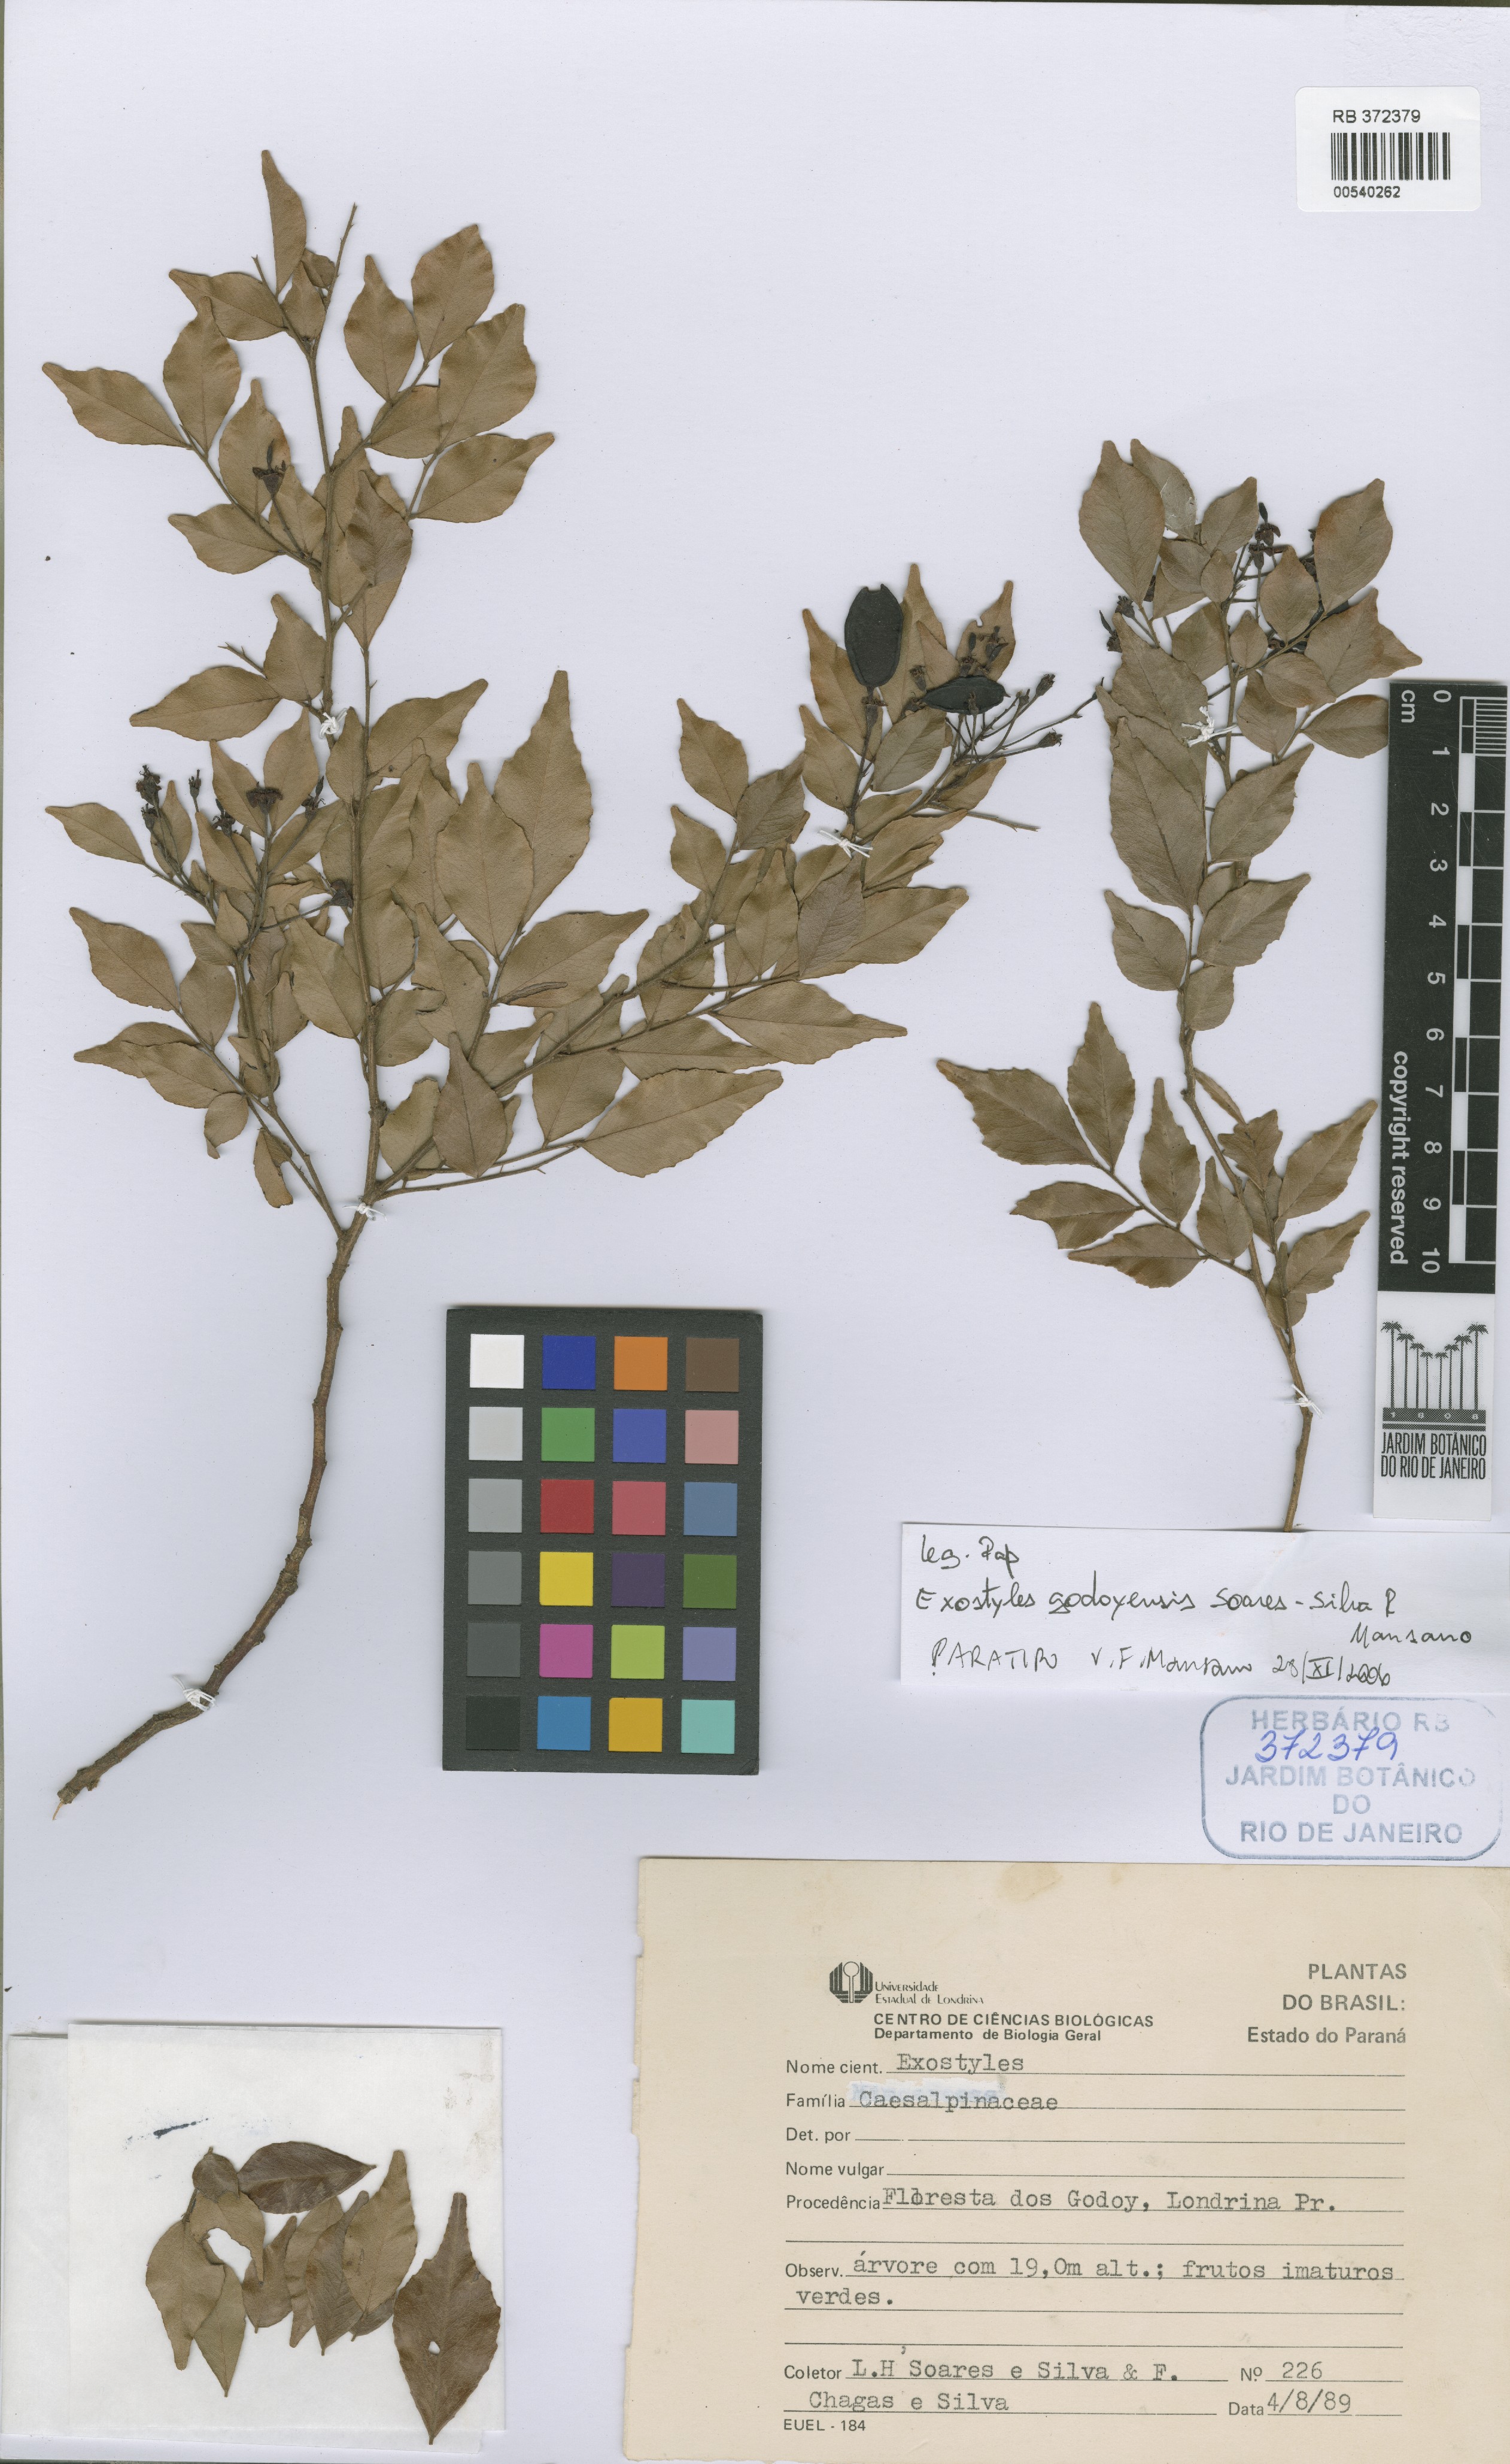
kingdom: Plantae
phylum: Tracheophyta
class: Magnoliopsida
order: Fabales
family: Fabaceae
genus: Exostyles
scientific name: Exostyles godoyensis
